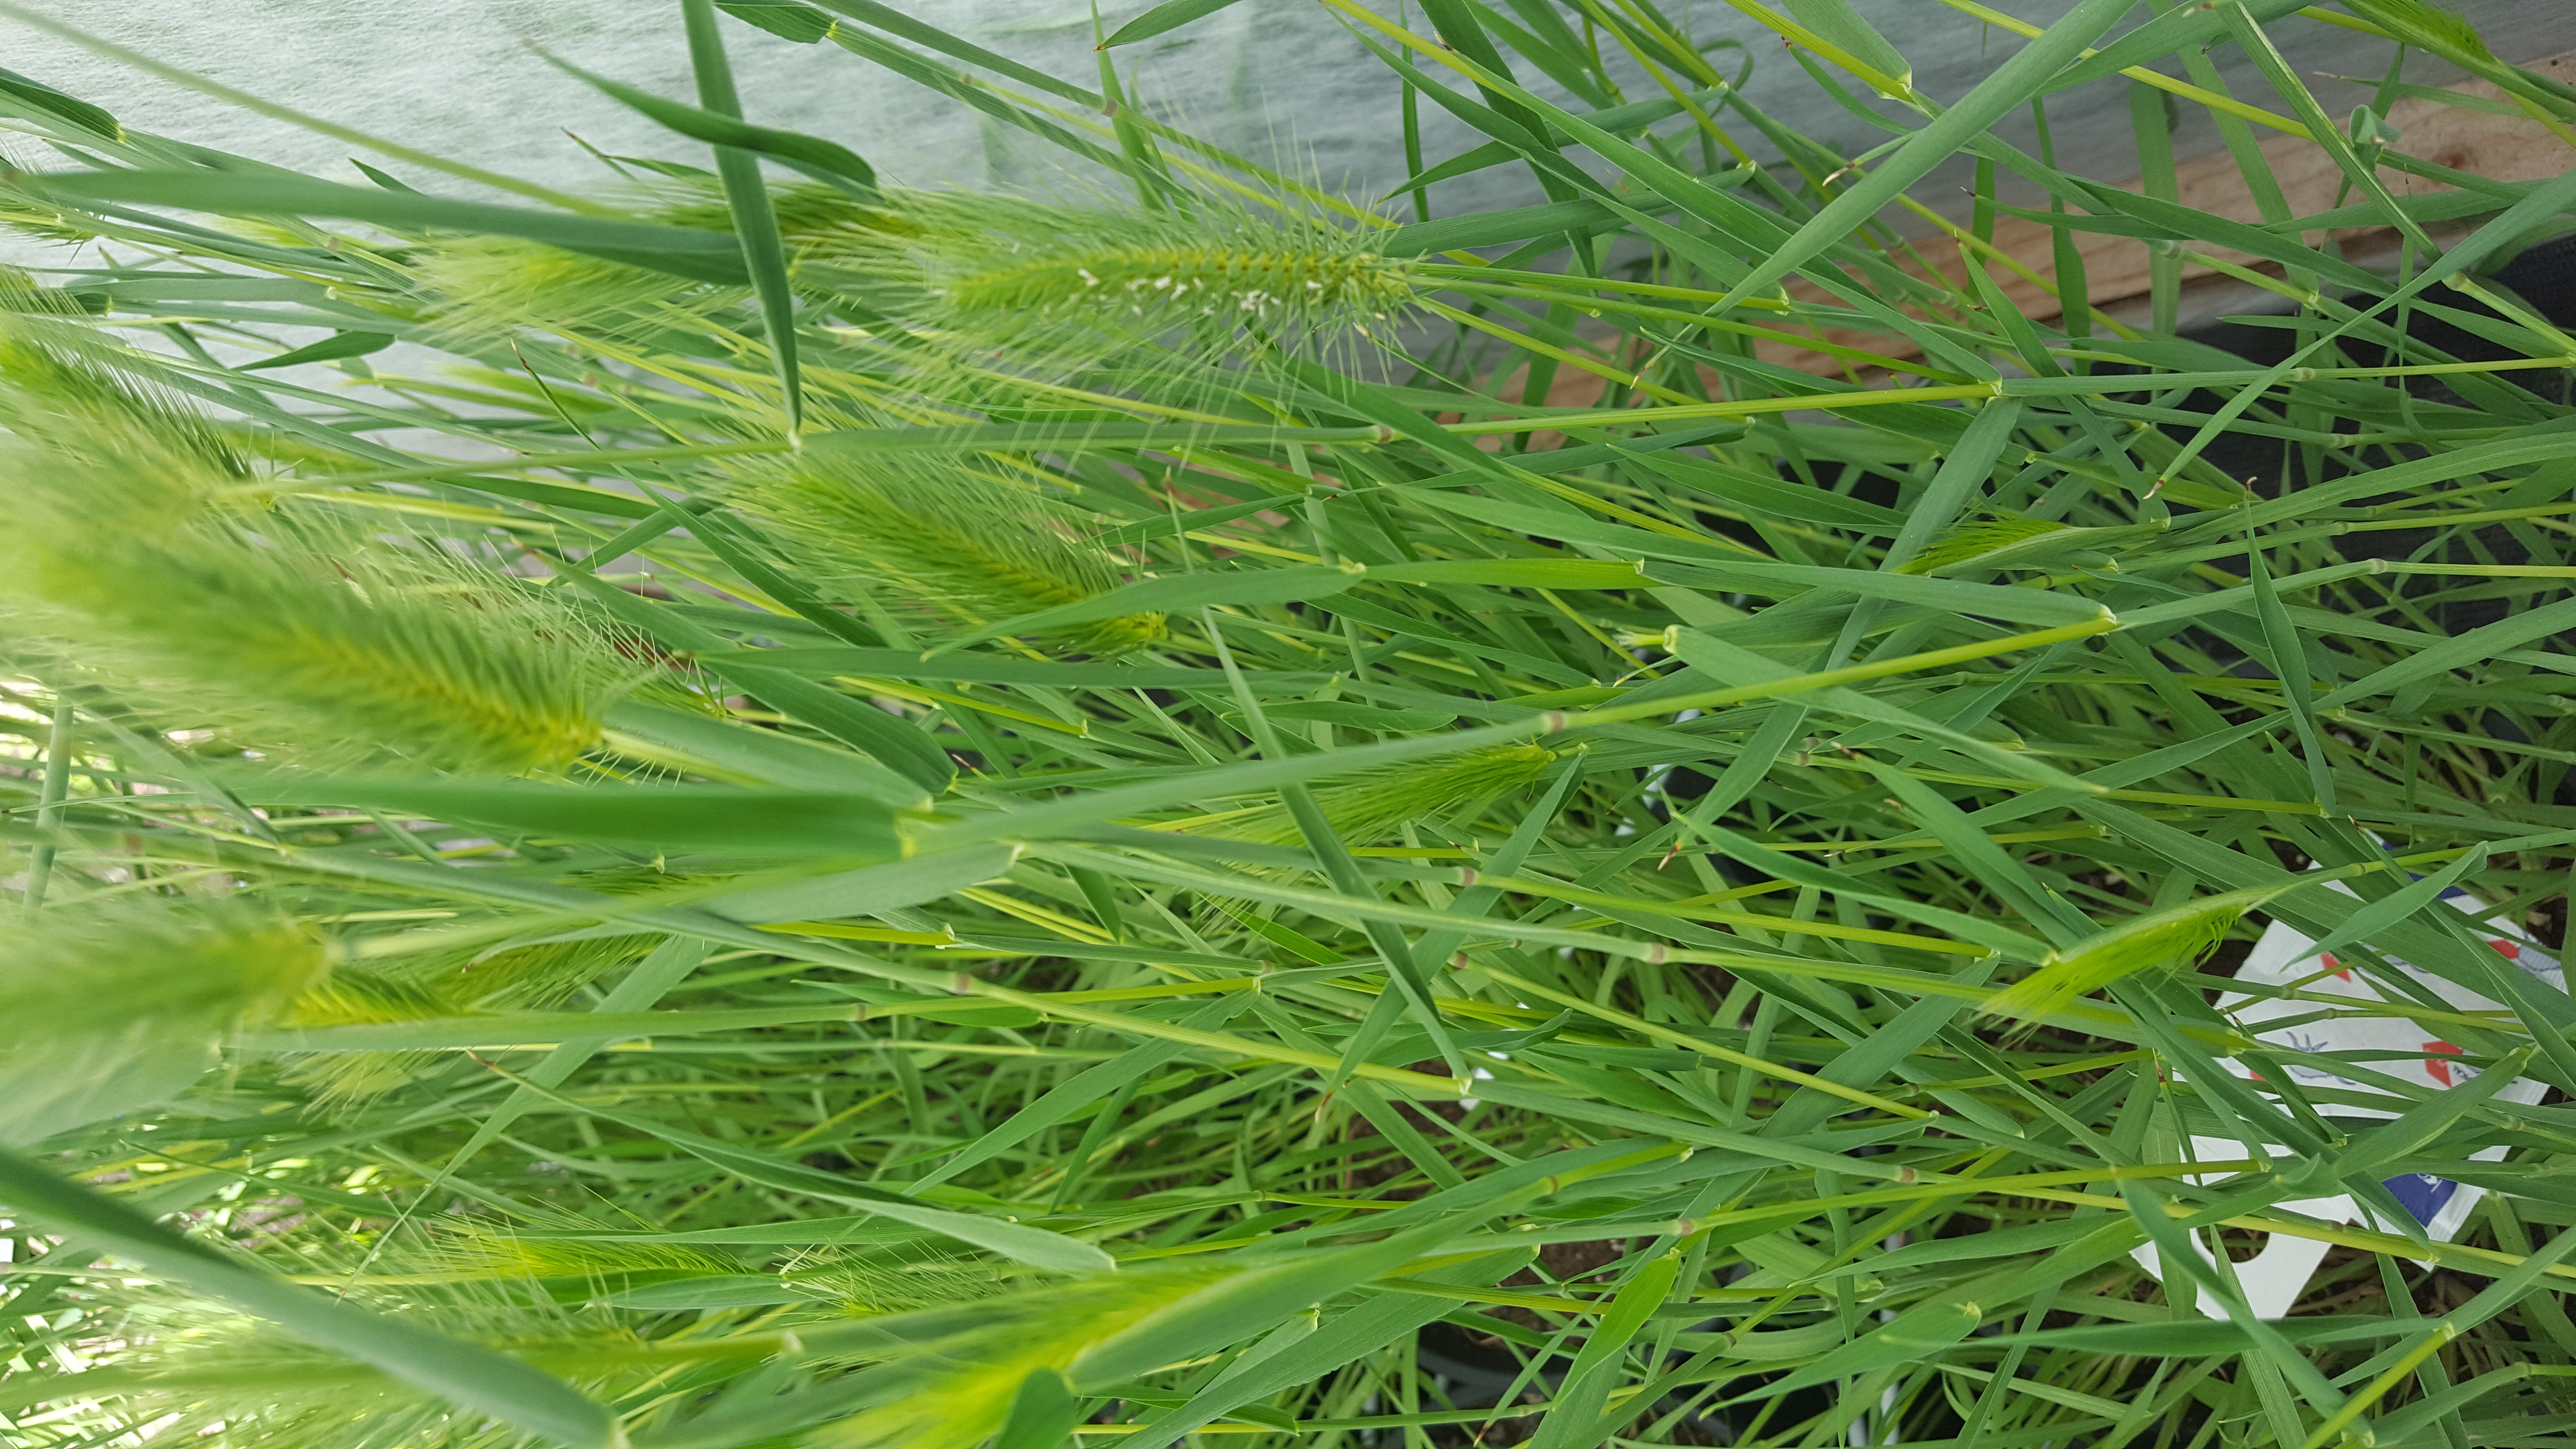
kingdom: Plantae
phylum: Tracheophyta
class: Liliopsida
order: Poales
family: Poaceae
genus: Hordeum
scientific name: Hordeum marinum
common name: Sea barley
